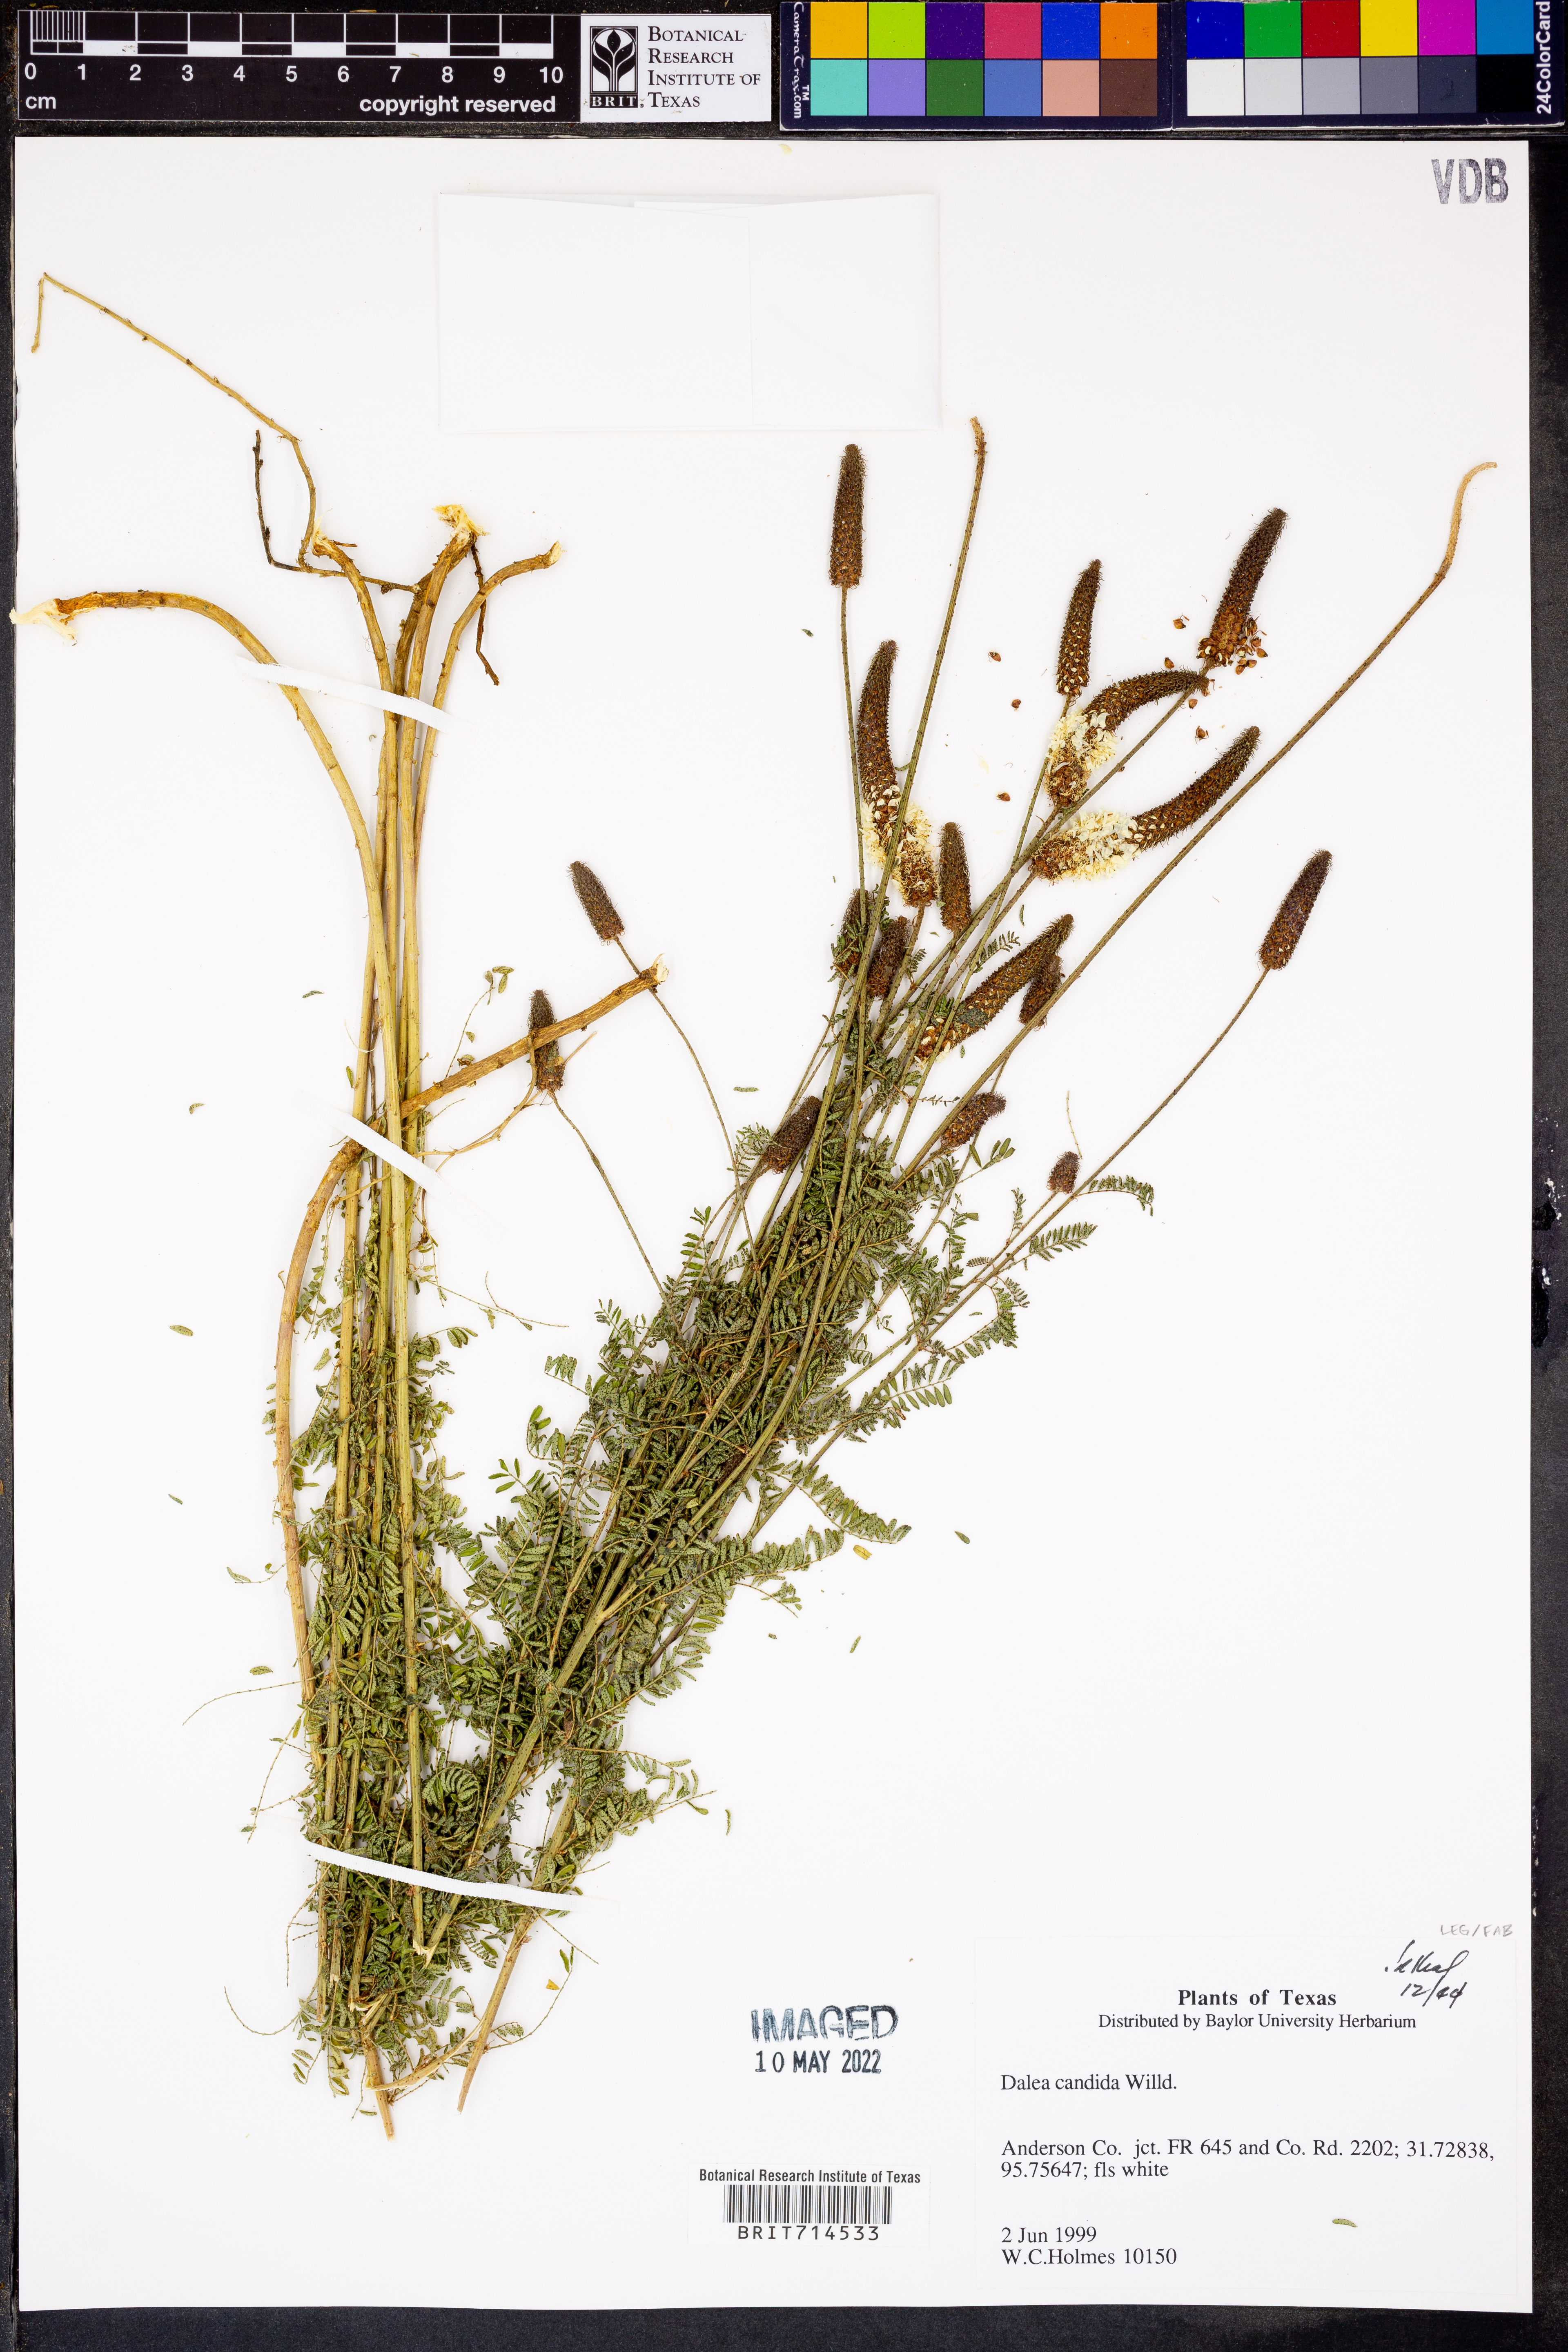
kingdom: Plantae
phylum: Tracheophyta
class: Magnoliopsida
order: Fabales
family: Fabaceae
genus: Dalea
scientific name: Dalea candida
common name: White prairie-clover
